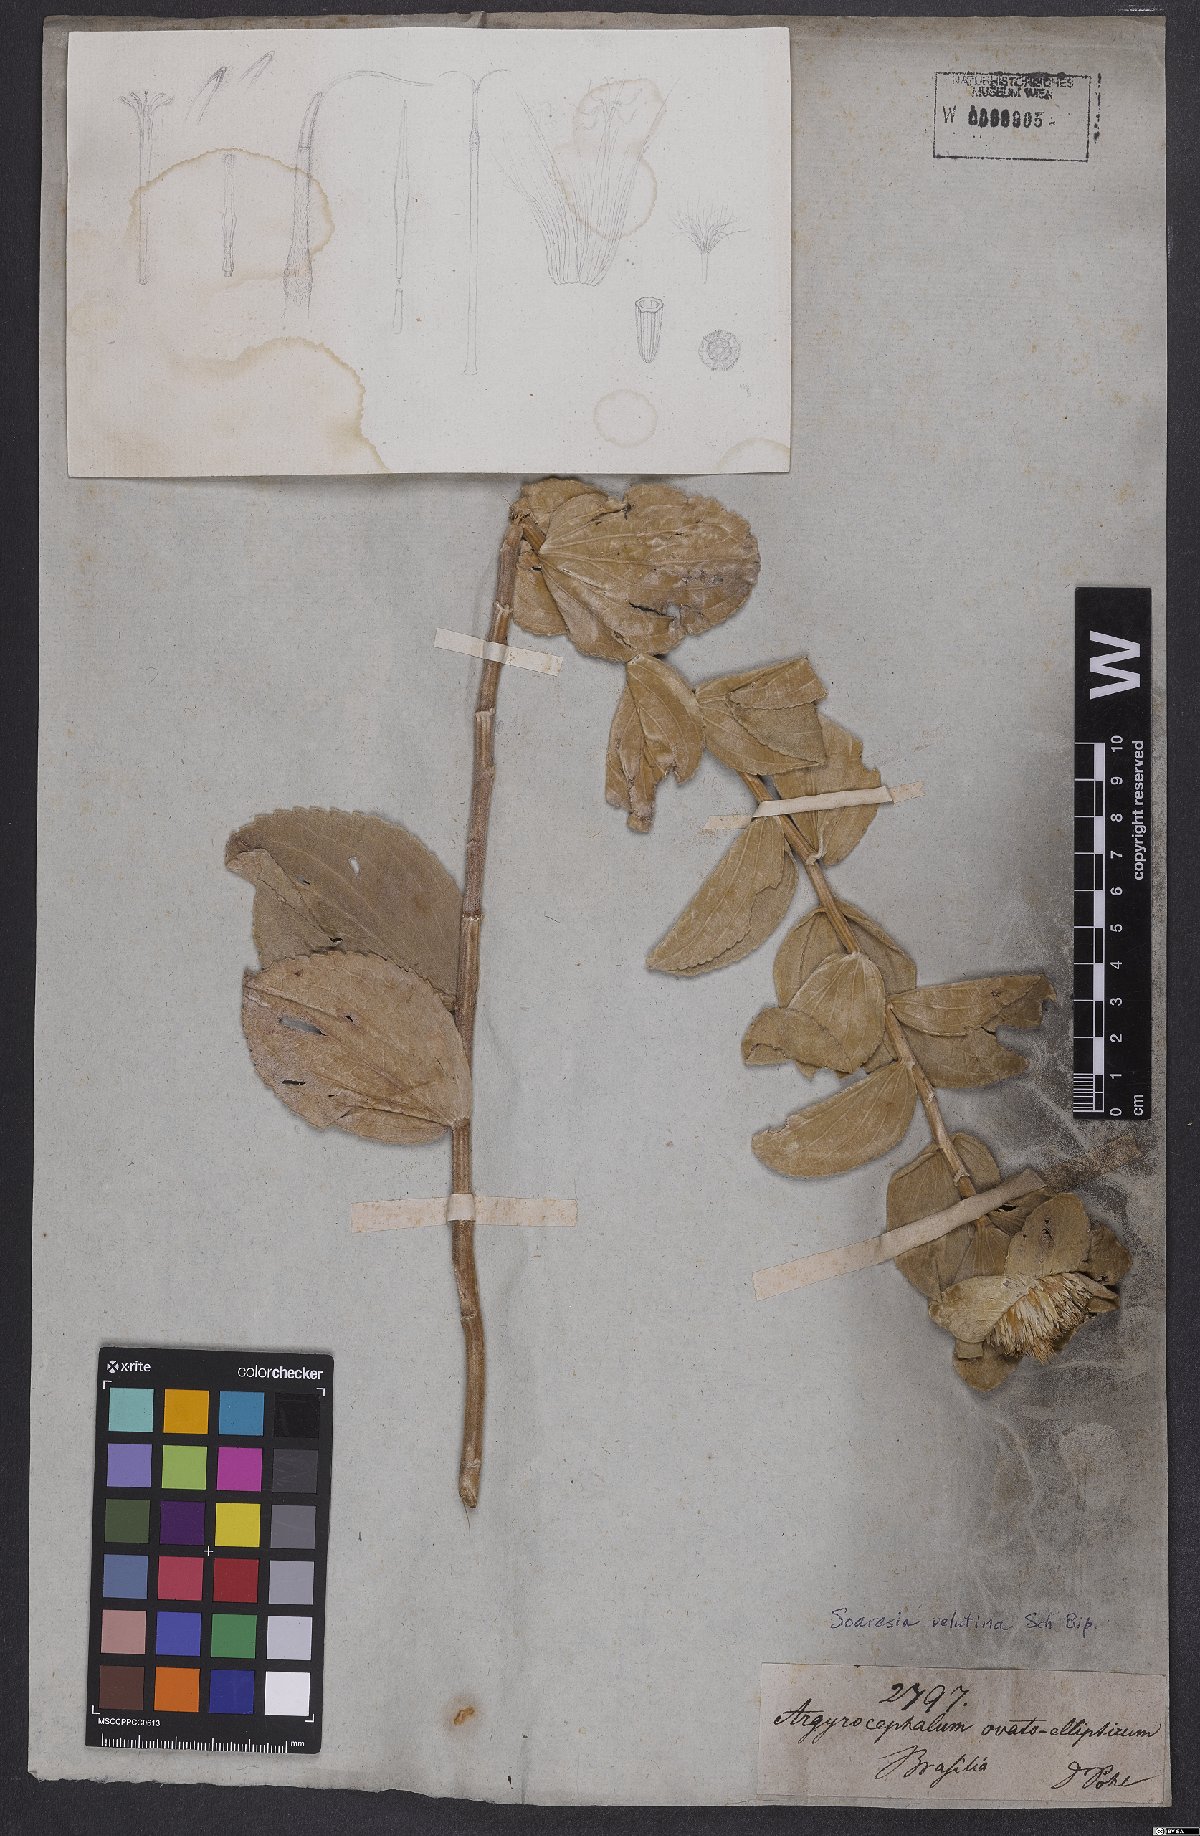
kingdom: Plantae
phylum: Tracheophyta
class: Magnoliopsida
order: Asterales
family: Asteraceae
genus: Soaresia
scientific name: Soaresia velutina
